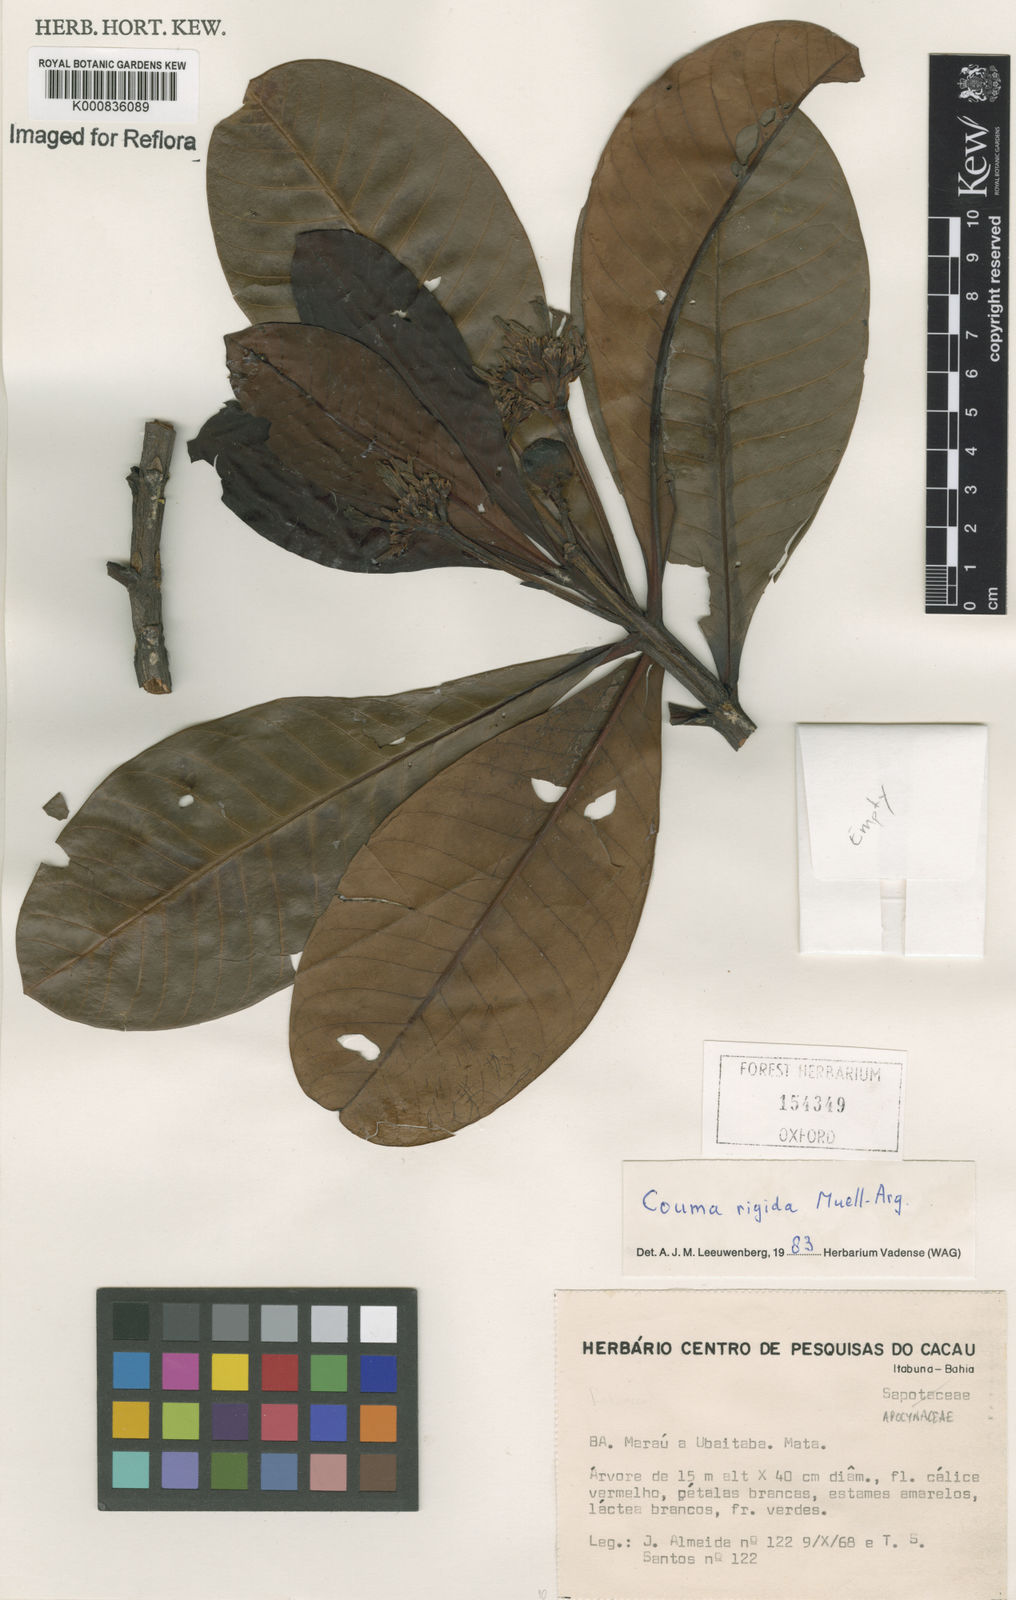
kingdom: Plantae
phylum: Tracheophyta
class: Magnoliopsida
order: Gentianales
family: Apocynaceae
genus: Couma
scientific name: Couma
